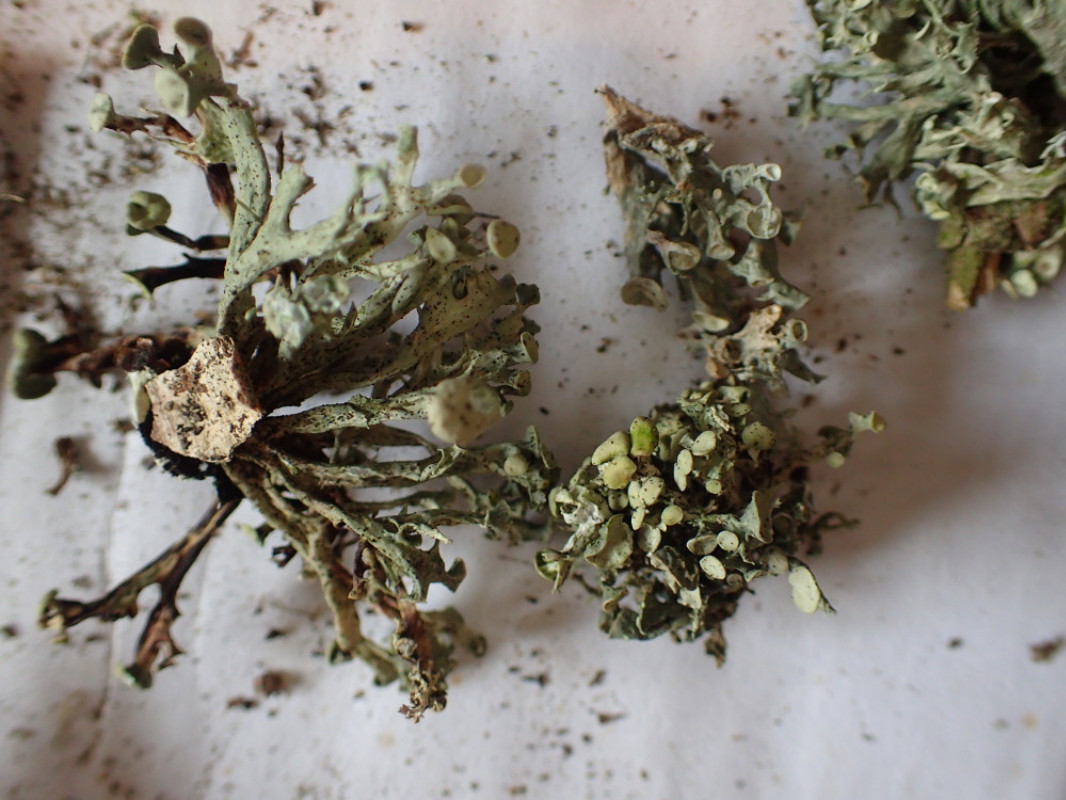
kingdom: Fungi
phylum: Ascomycota
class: Lecanoromycetes
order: Lecanorales
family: Ramalinaceae
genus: Ramalina
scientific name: Ramalina fastigiata
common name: tue-grenlav
